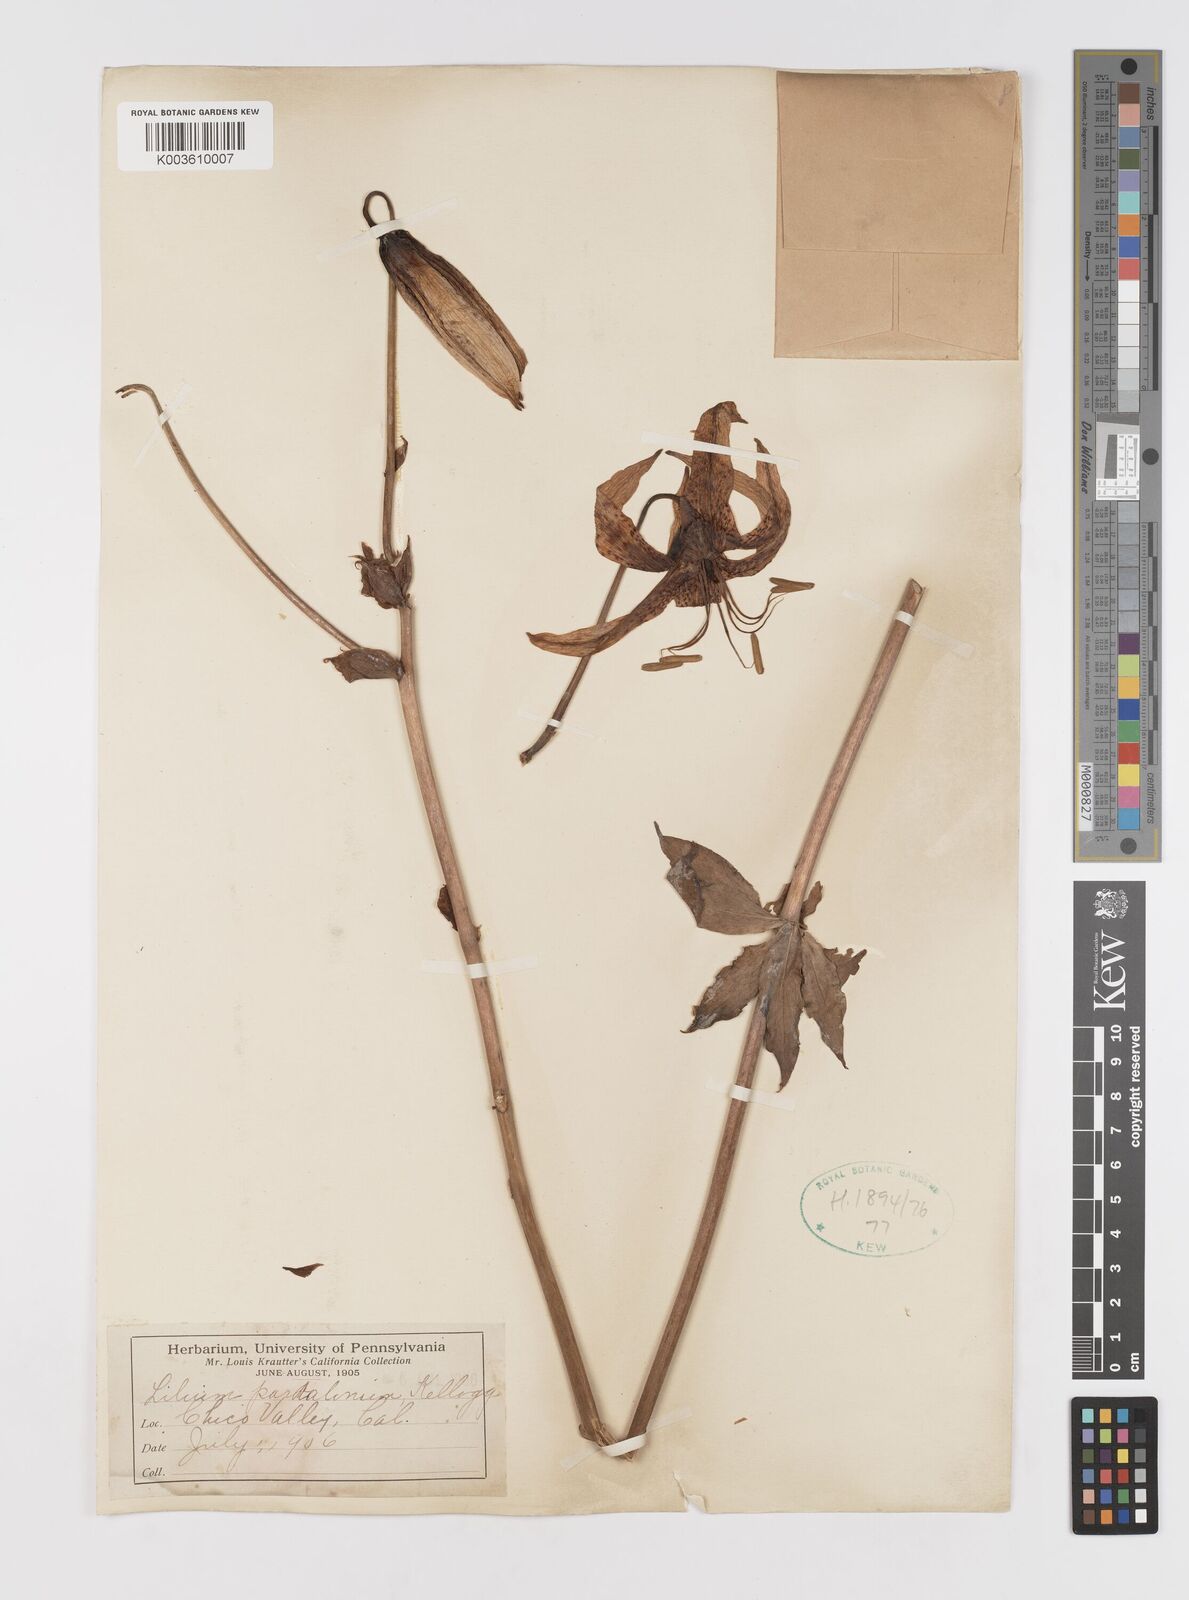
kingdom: Plantae
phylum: Tracheophyta
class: Liliopsida
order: Liliales
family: Liliaceae
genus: Lilium
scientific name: Lilium humboldtii
